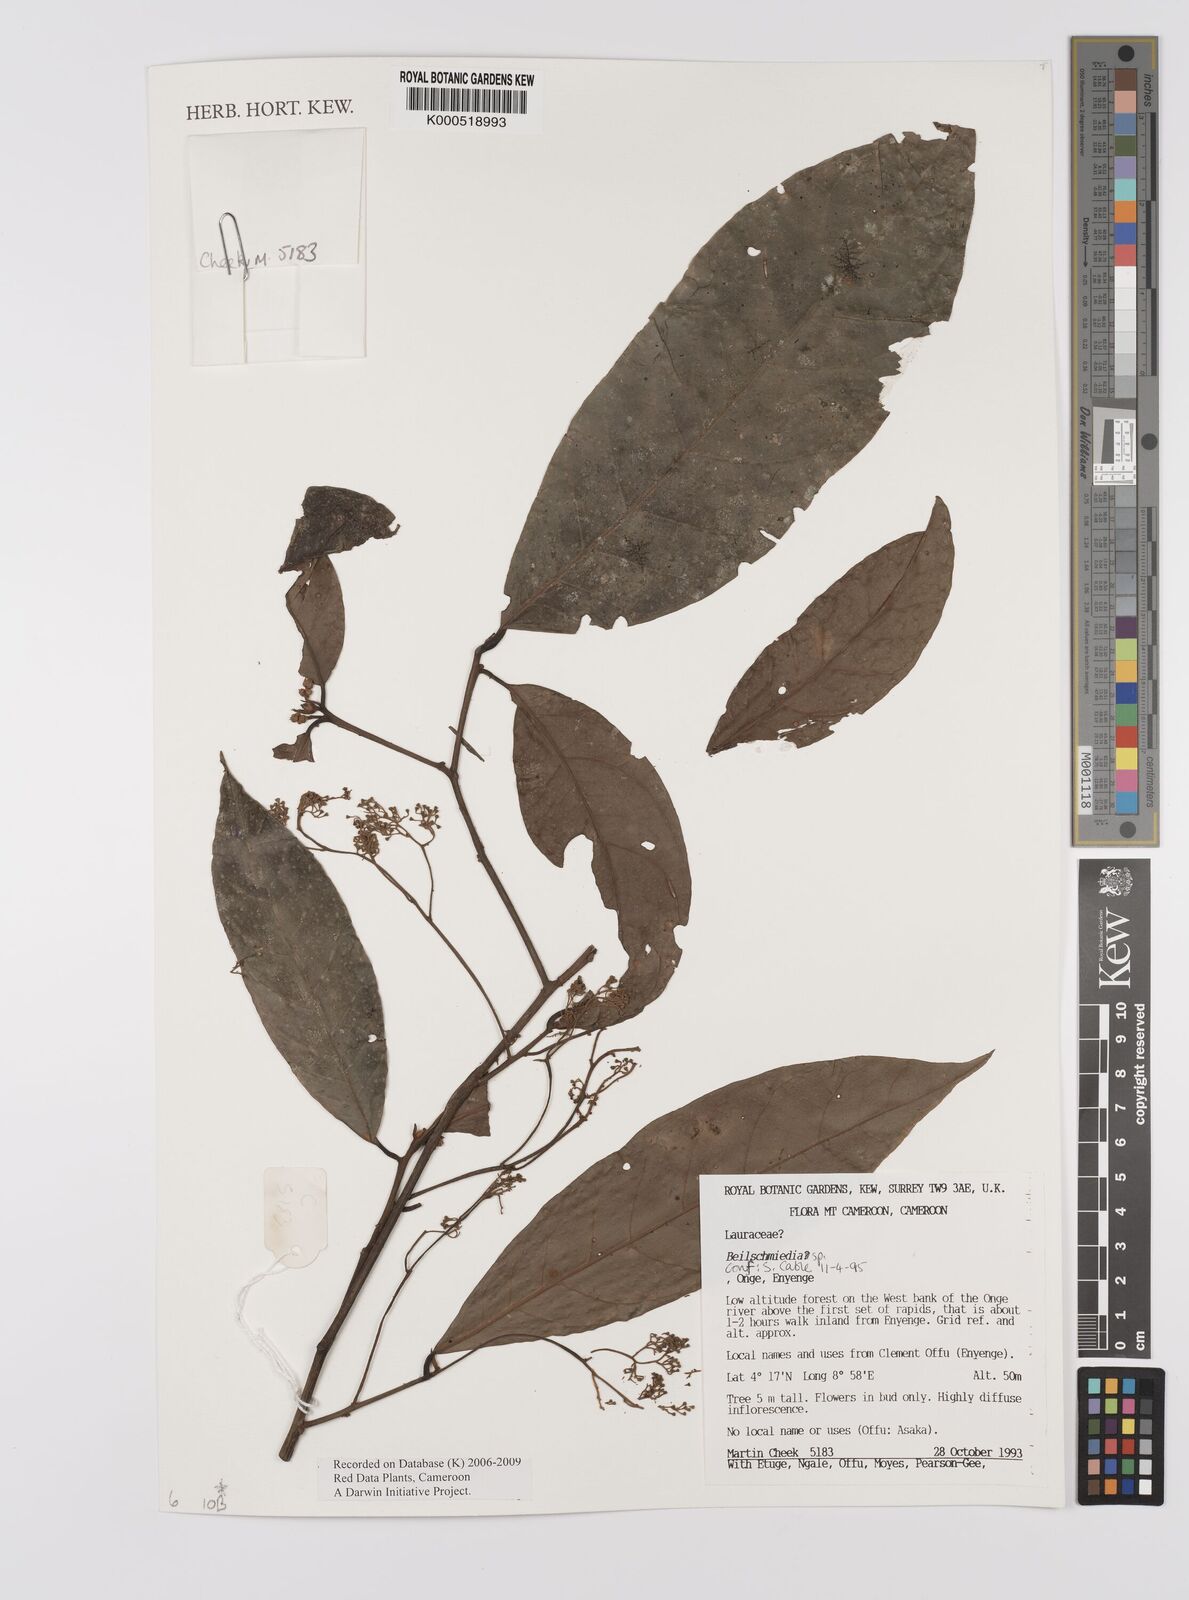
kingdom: Plantae
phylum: Tracheophyta
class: Magnoliopsida
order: Laurales
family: Lauraceae
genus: Beilschmiedia
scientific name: Beilschmiedia
